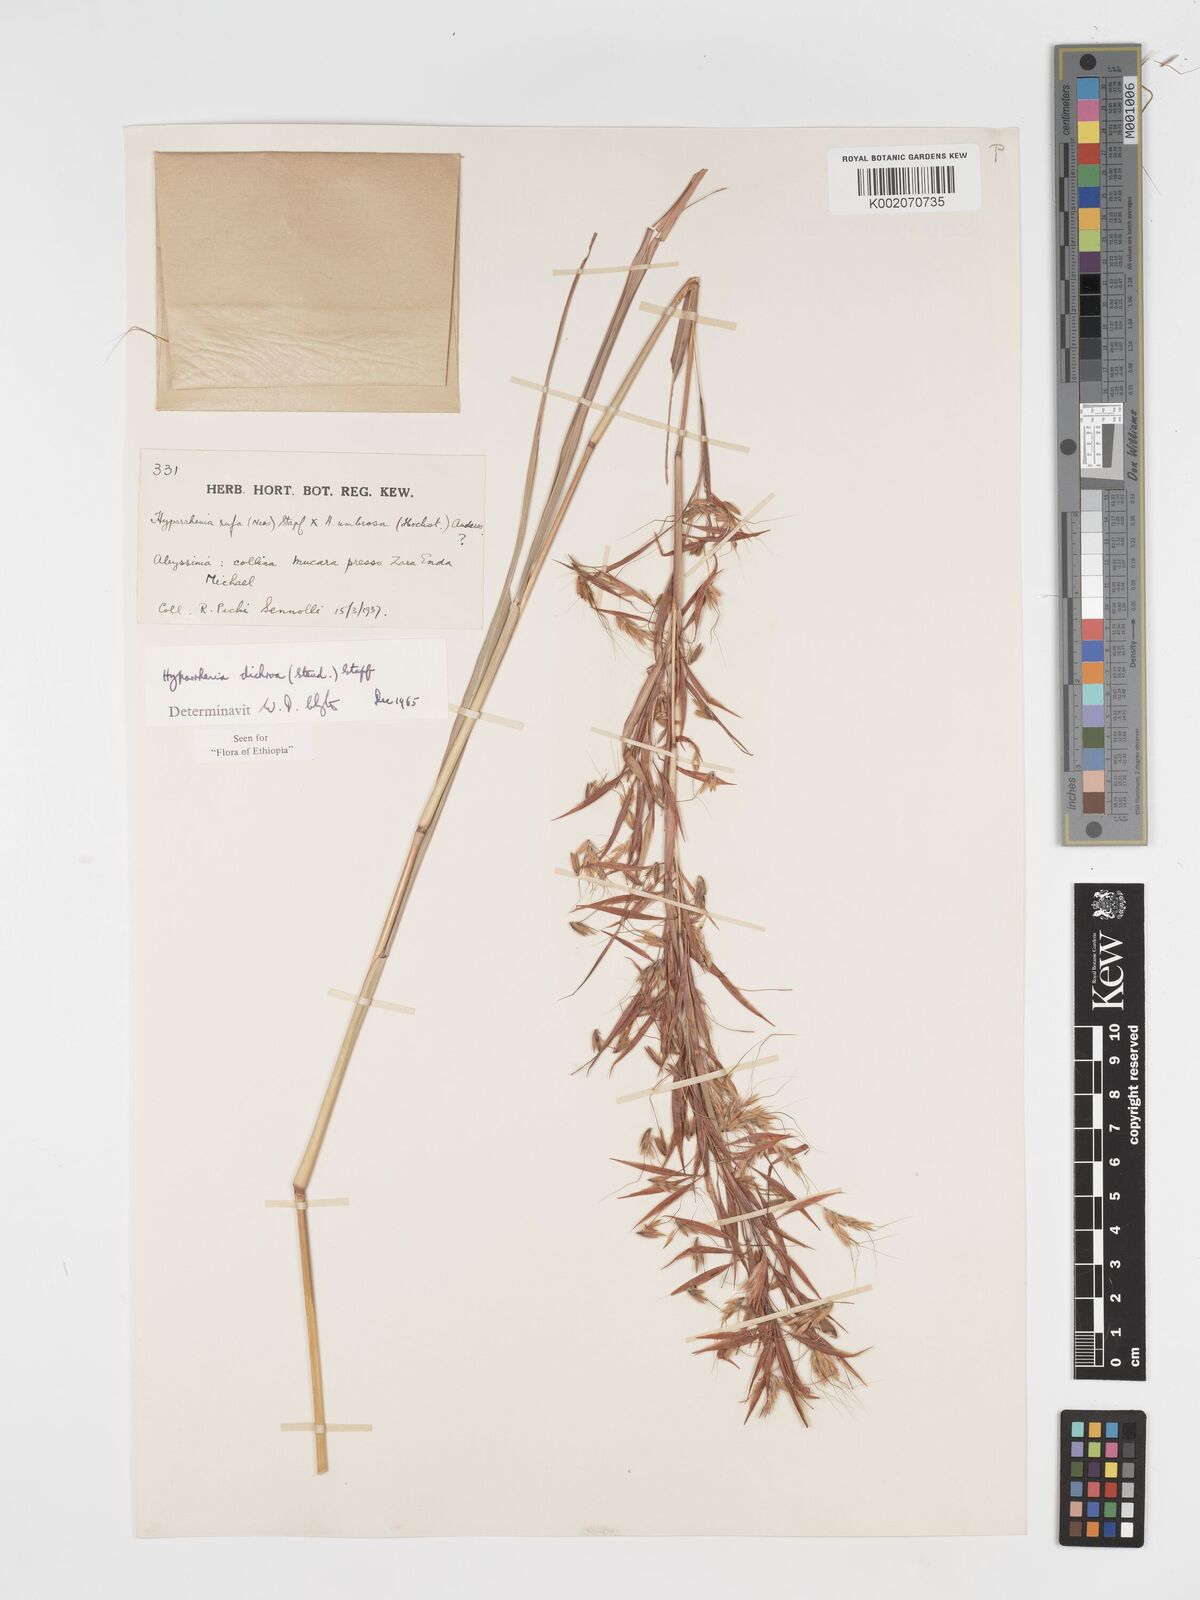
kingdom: Plantae
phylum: Tracheophyta
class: Liliopsida
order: Poales
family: Poaceae
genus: Hyparrhenia
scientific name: Hyparrhenia dichroa
